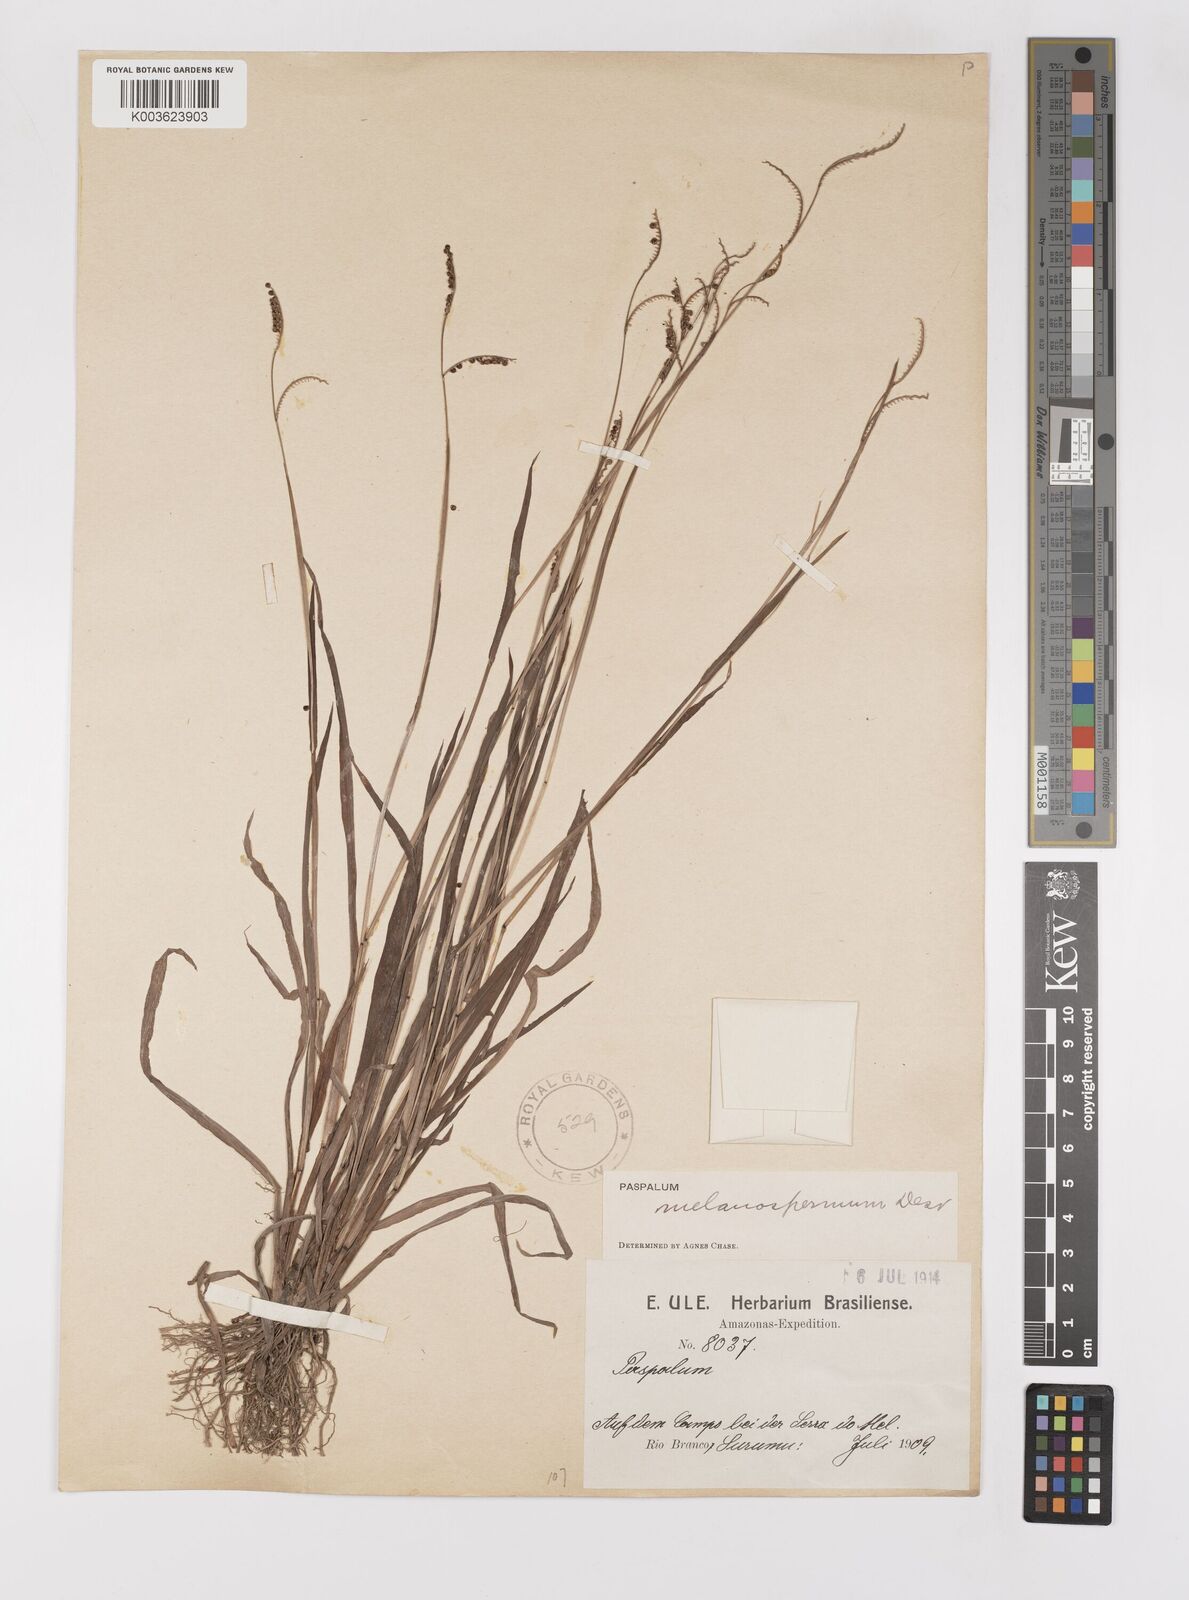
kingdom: Plantae
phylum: Tracheophyta
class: Liliopsida
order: Poales
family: Poaceae
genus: Paspalum
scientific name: Paspalum melanospermum
